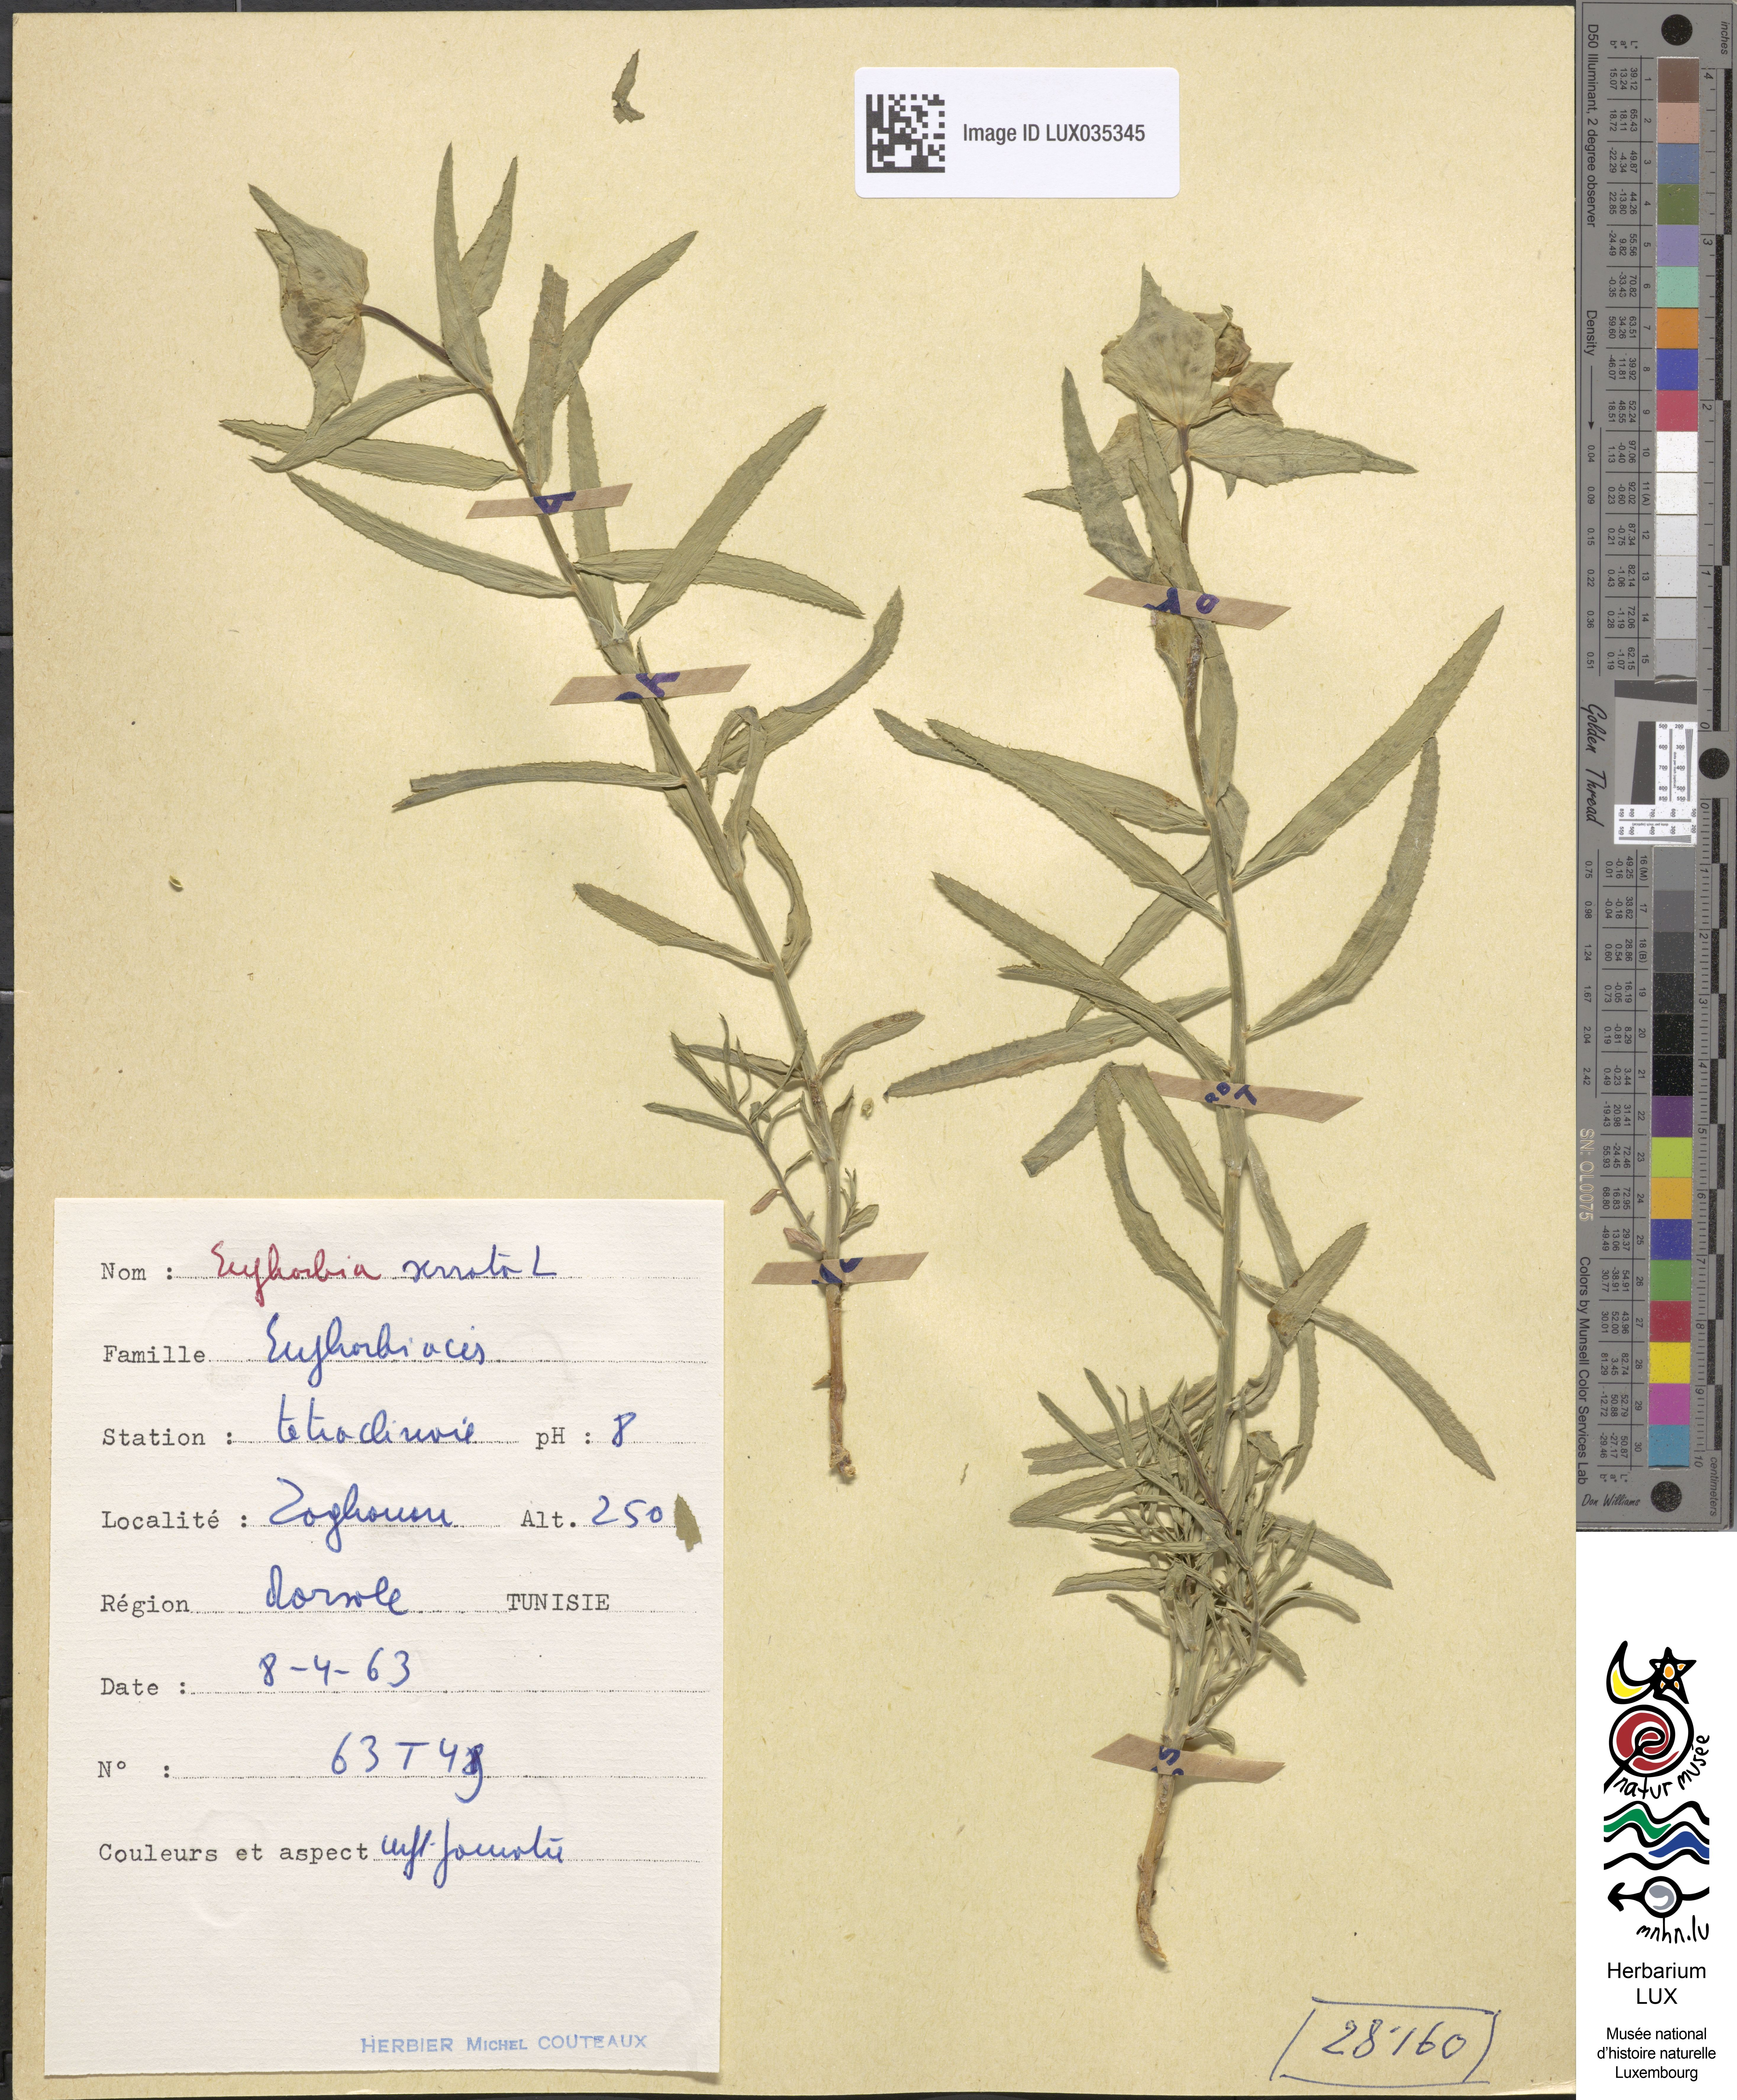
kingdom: Plantae
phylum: Tracheophyta
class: Magnoliopsida
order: Malpighiales
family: Euphorbiaceae
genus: Euphorbia
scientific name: Euphorbia serrata
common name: Serrate spurge
